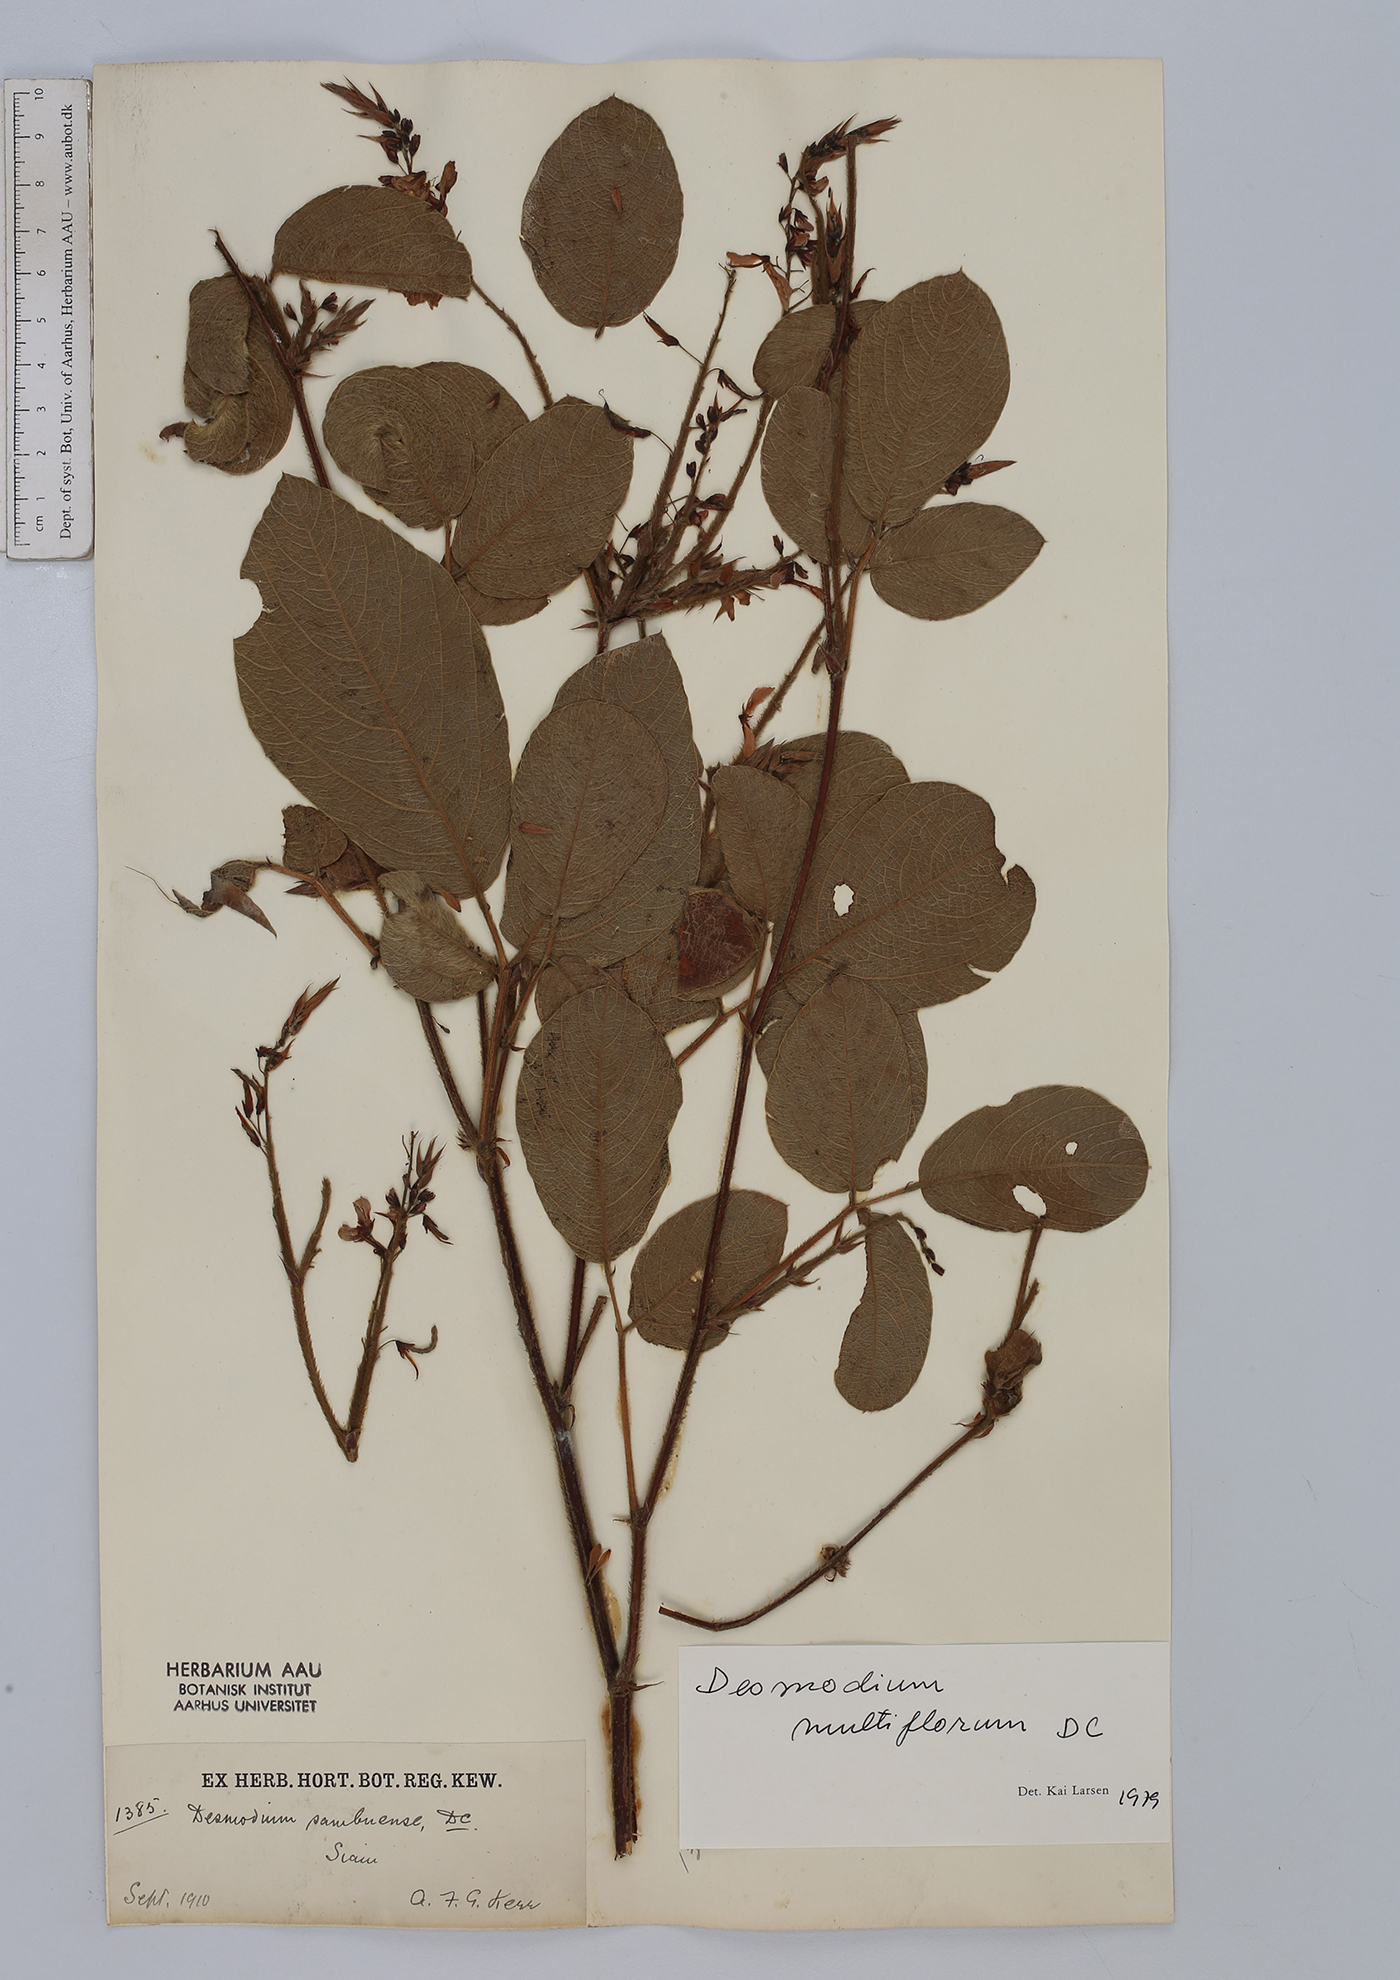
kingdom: Plantae
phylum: Tracheophyta
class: Magnoliopsida
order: Fabales
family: Fabaceae
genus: Ototropis
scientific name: Ototropis multiflora
